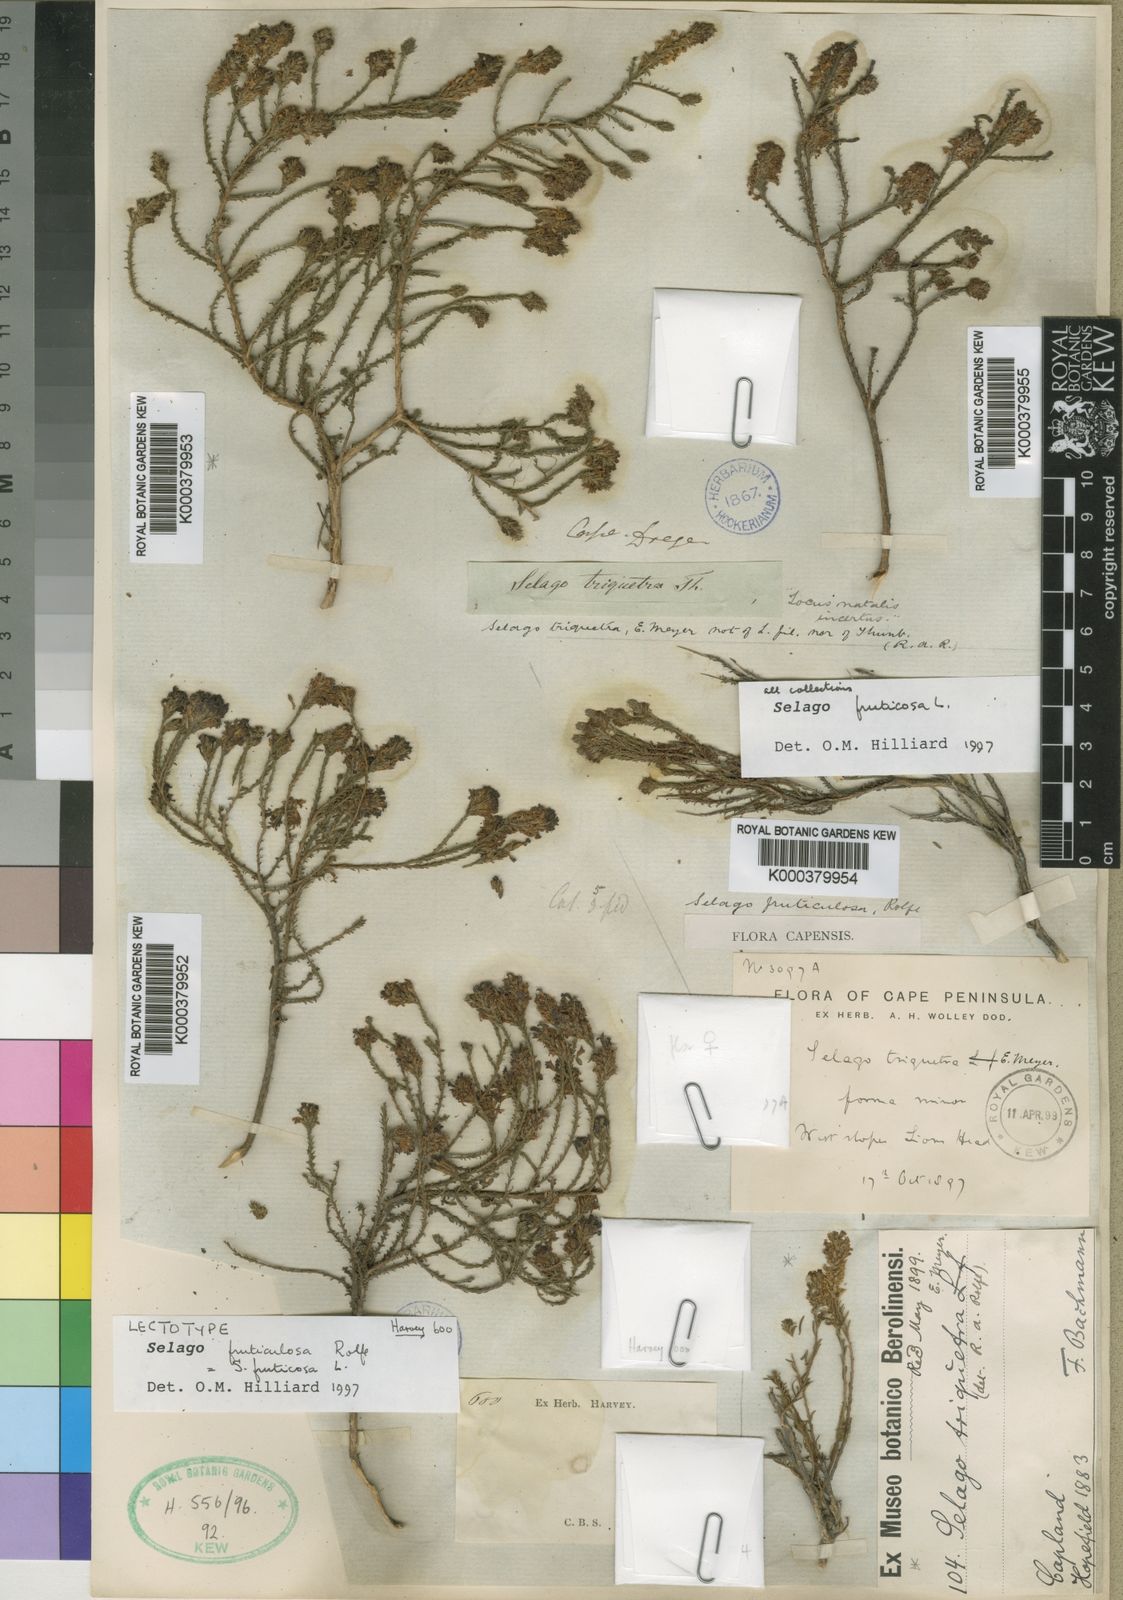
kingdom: Plantae
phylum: Tracheophyta
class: Magnoliopsida
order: Lamiales
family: Scrophulariaceae
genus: Selago
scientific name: Selago fruticosa
